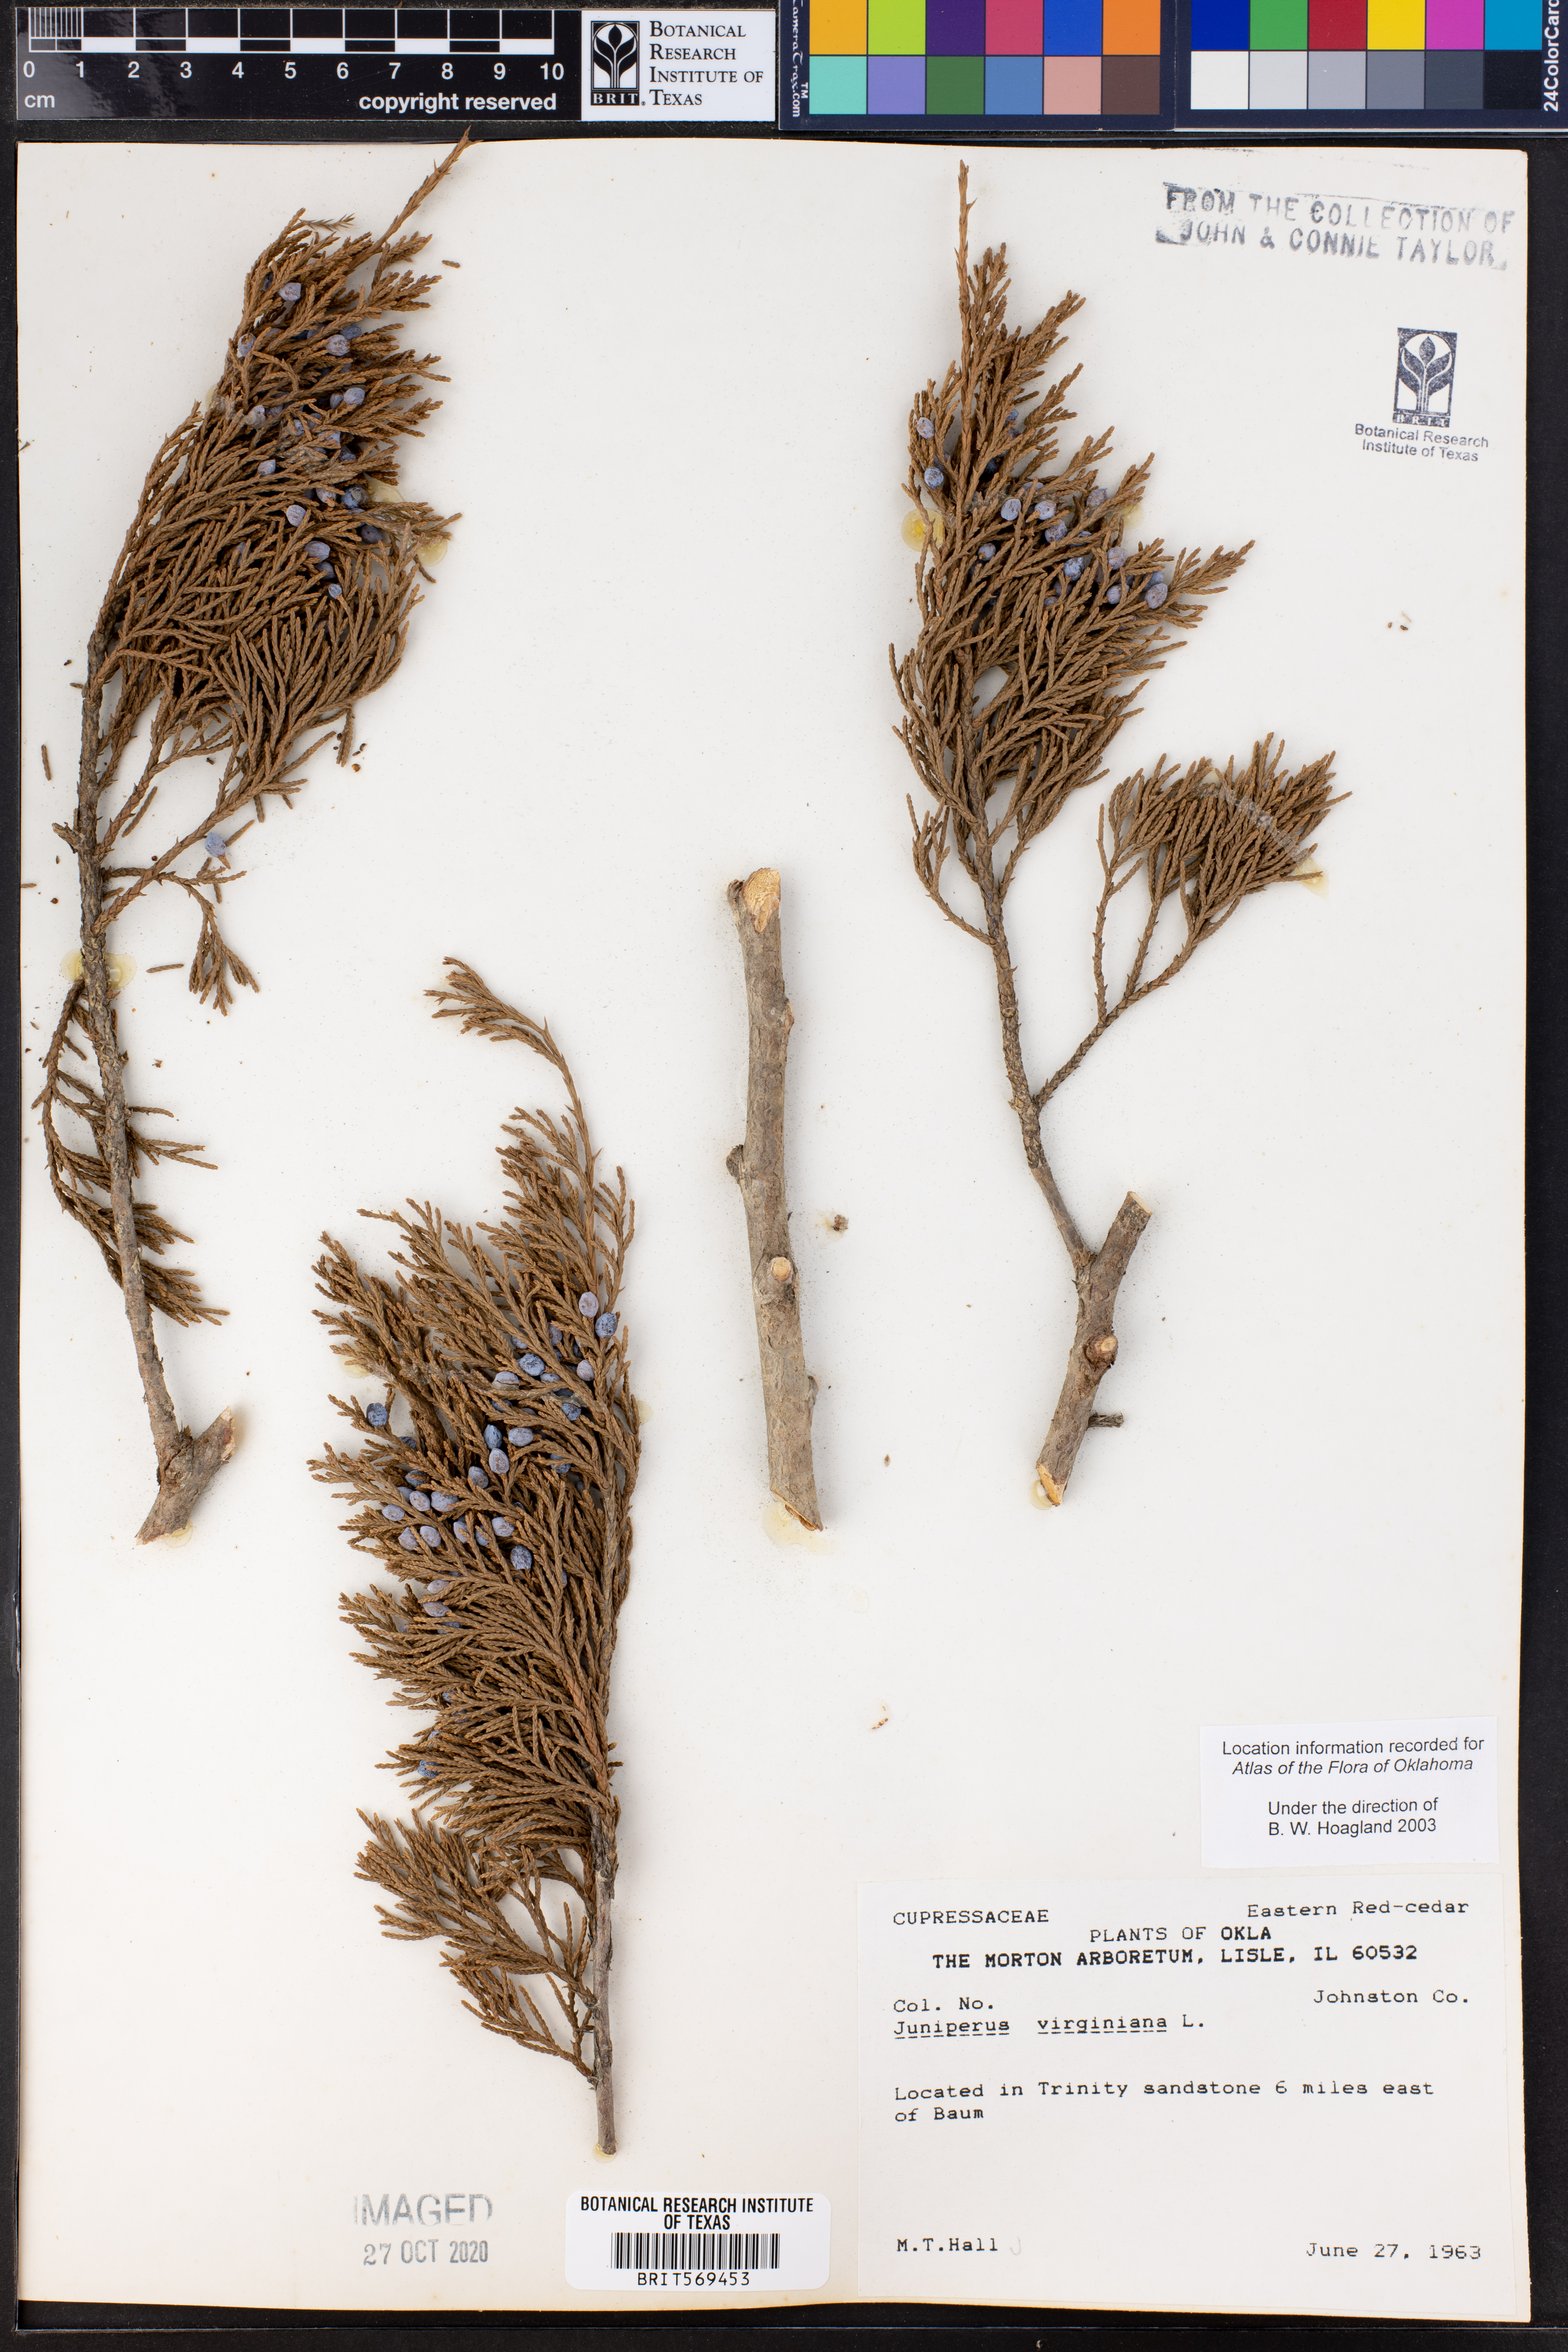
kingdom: Plantae
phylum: Tracheophyta
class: Pinopsida
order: Pinales
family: Cupressaceae
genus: Juniperus
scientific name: Juniperus virginiana
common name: Red juniper
